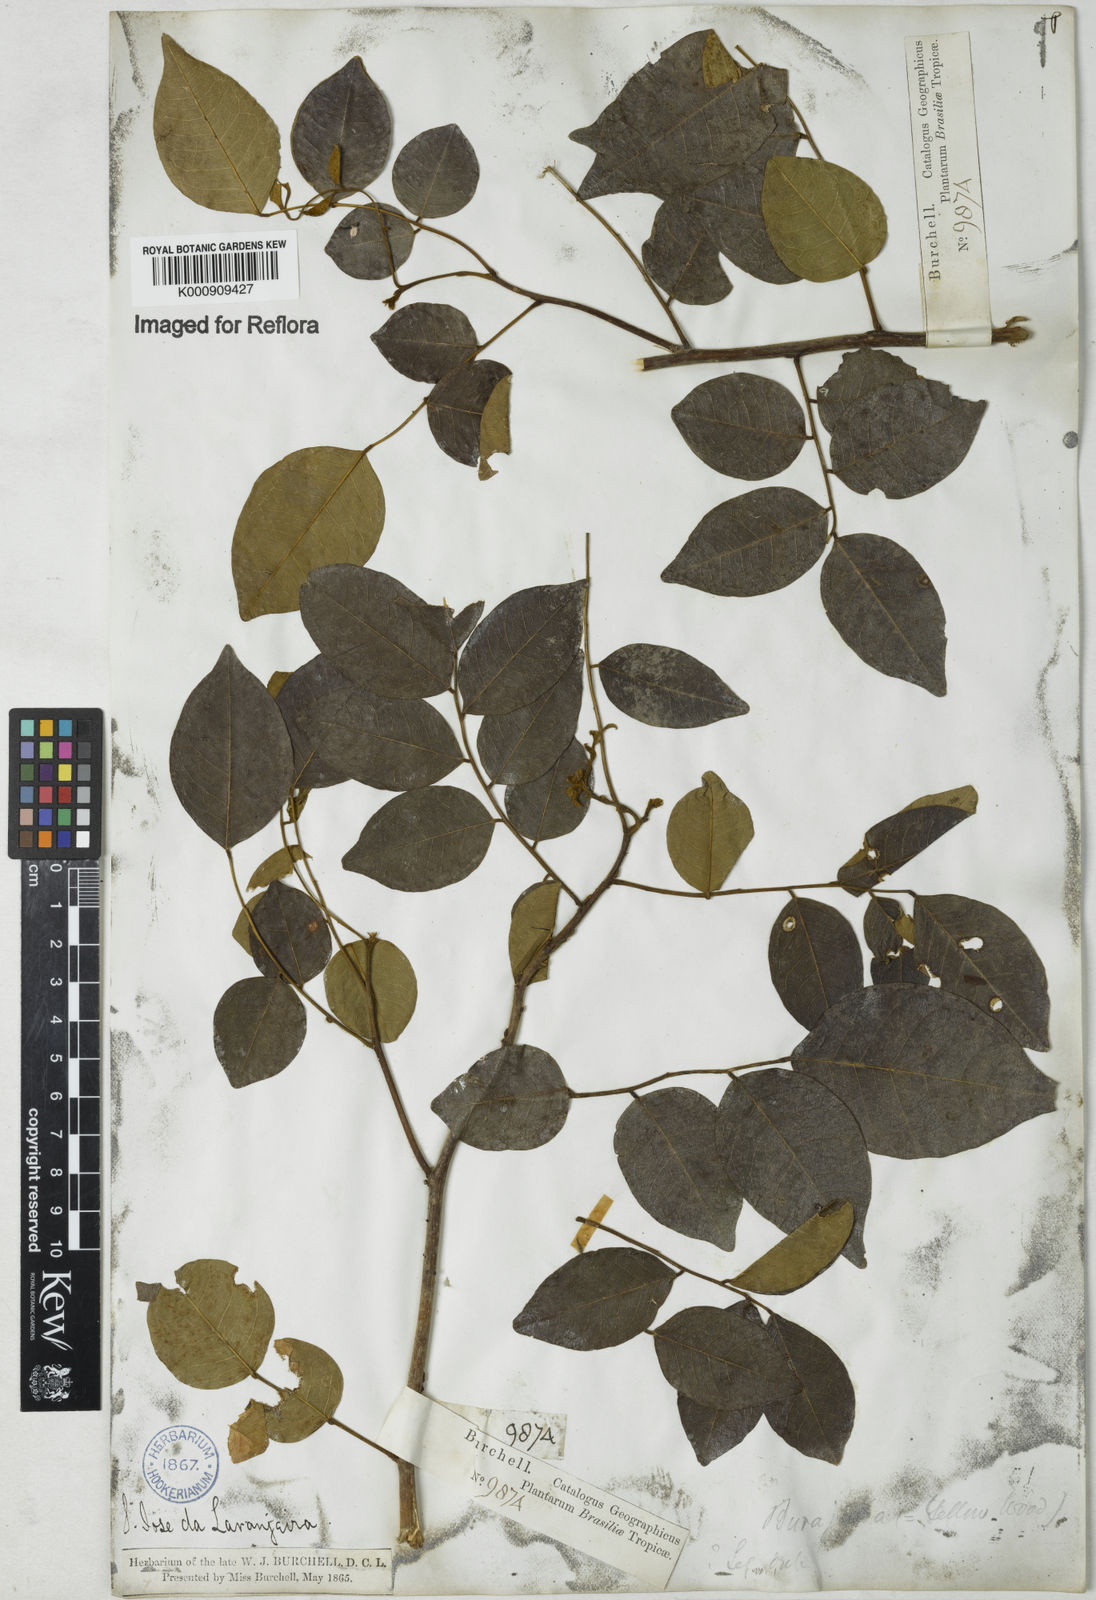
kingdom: Plantae
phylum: Tracheophyta
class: Magnoliopsida
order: Fabales
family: Fabaceae
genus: Dalbergia
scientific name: Dalbergia
